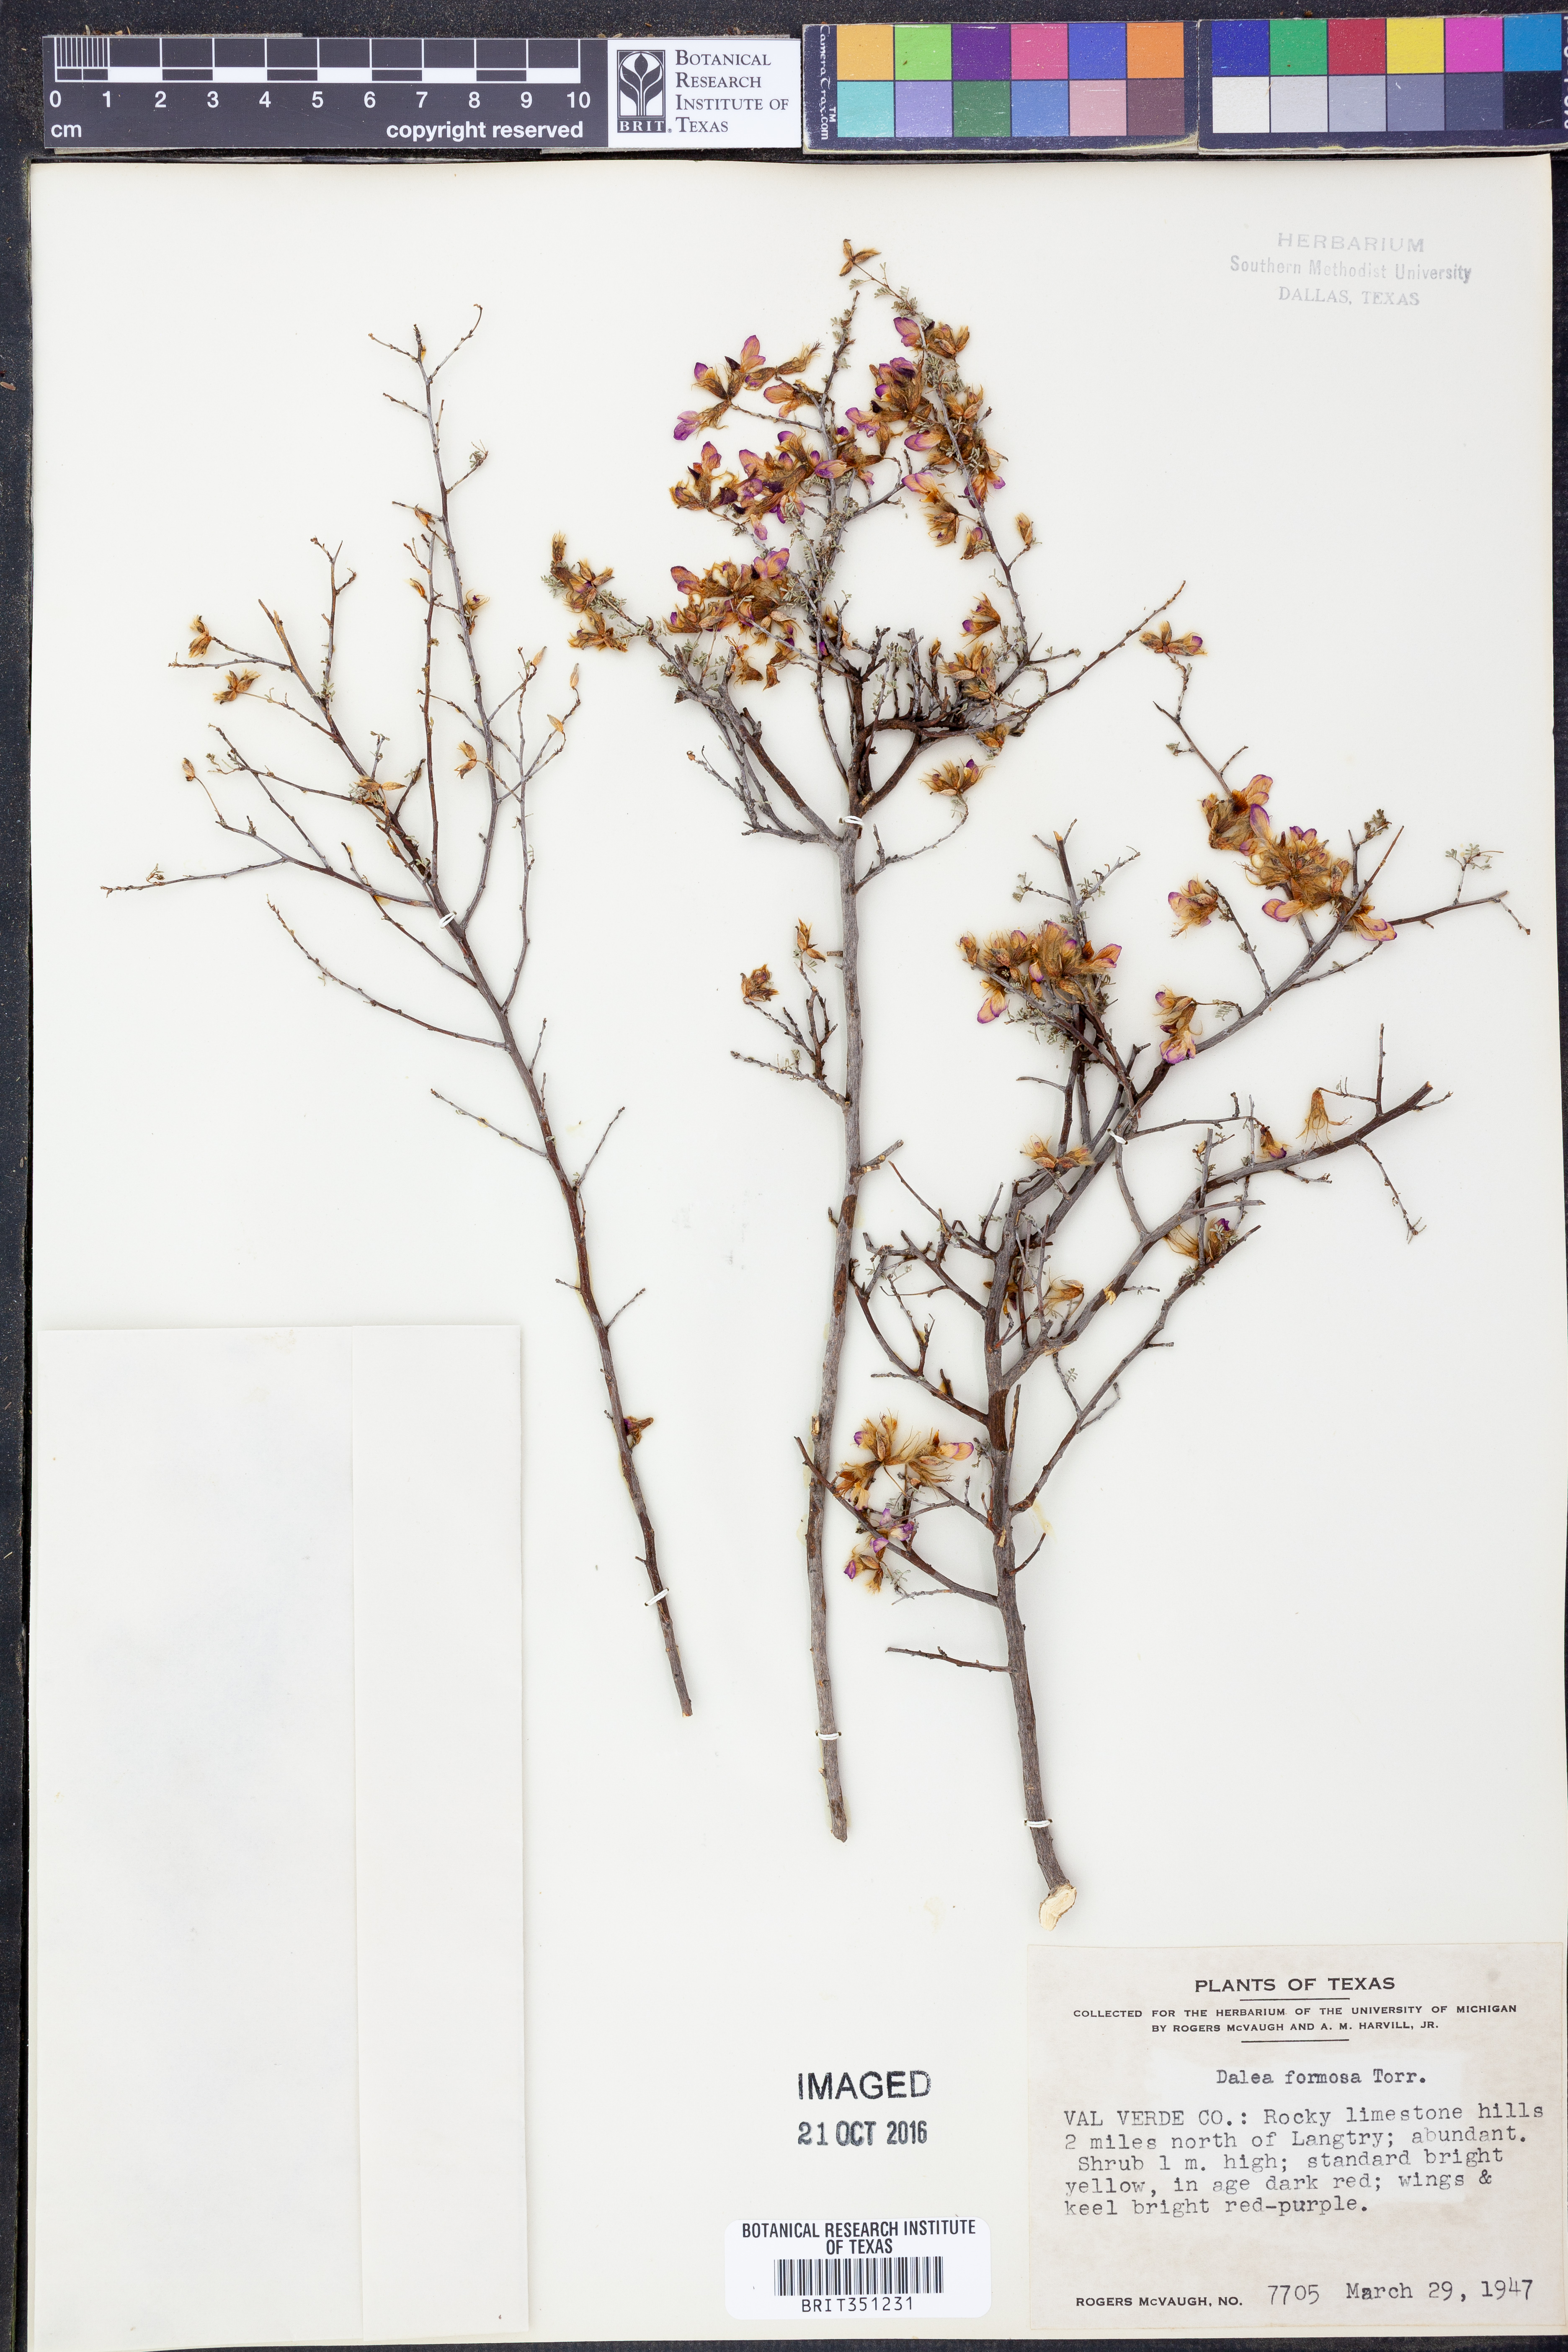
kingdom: Plantae
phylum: Tracheophyta
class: Magnoliopsida
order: Fabales
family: Fabaceae
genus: Dalea
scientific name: Dalea formosa
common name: Feather-plume dalea
